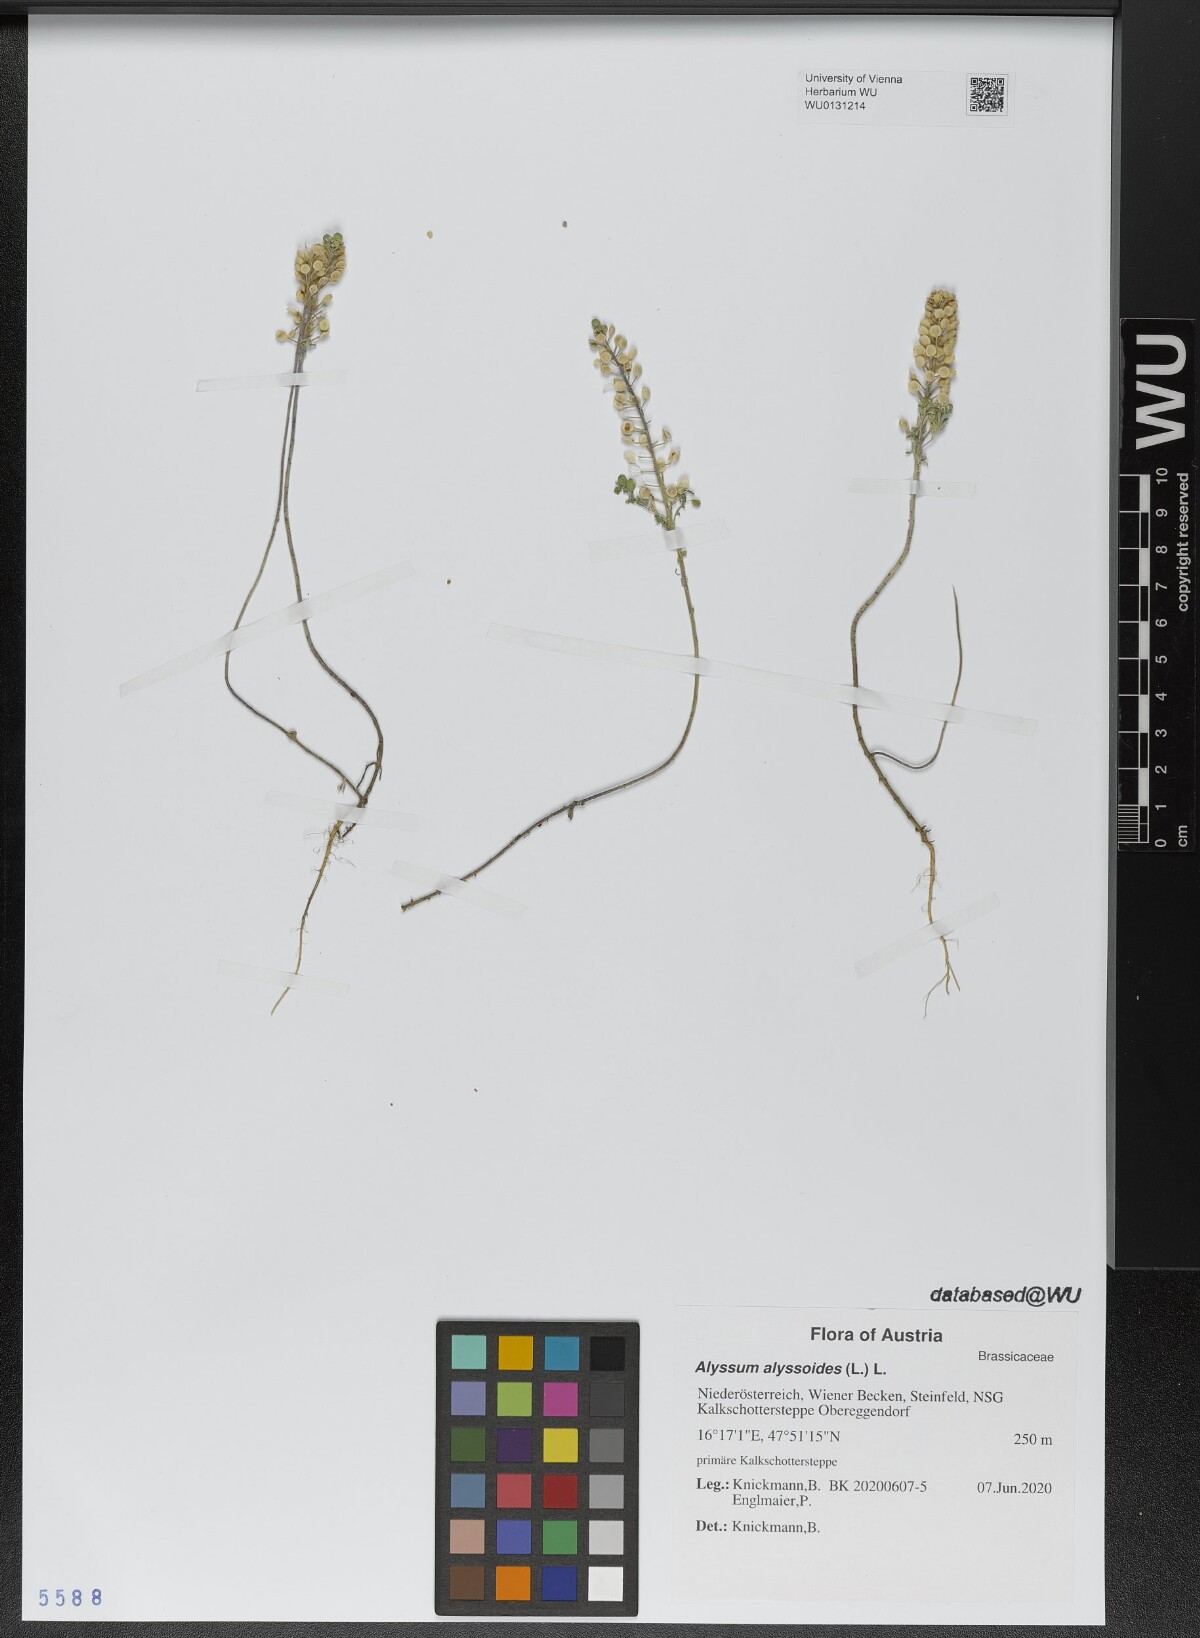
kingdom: Plantae
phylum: Tracheophyta
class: Magnoliopsida
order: Brassicales
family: Brassicaceae
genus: Alyssum
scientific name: Alyssum alyssoides
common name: Small alison
